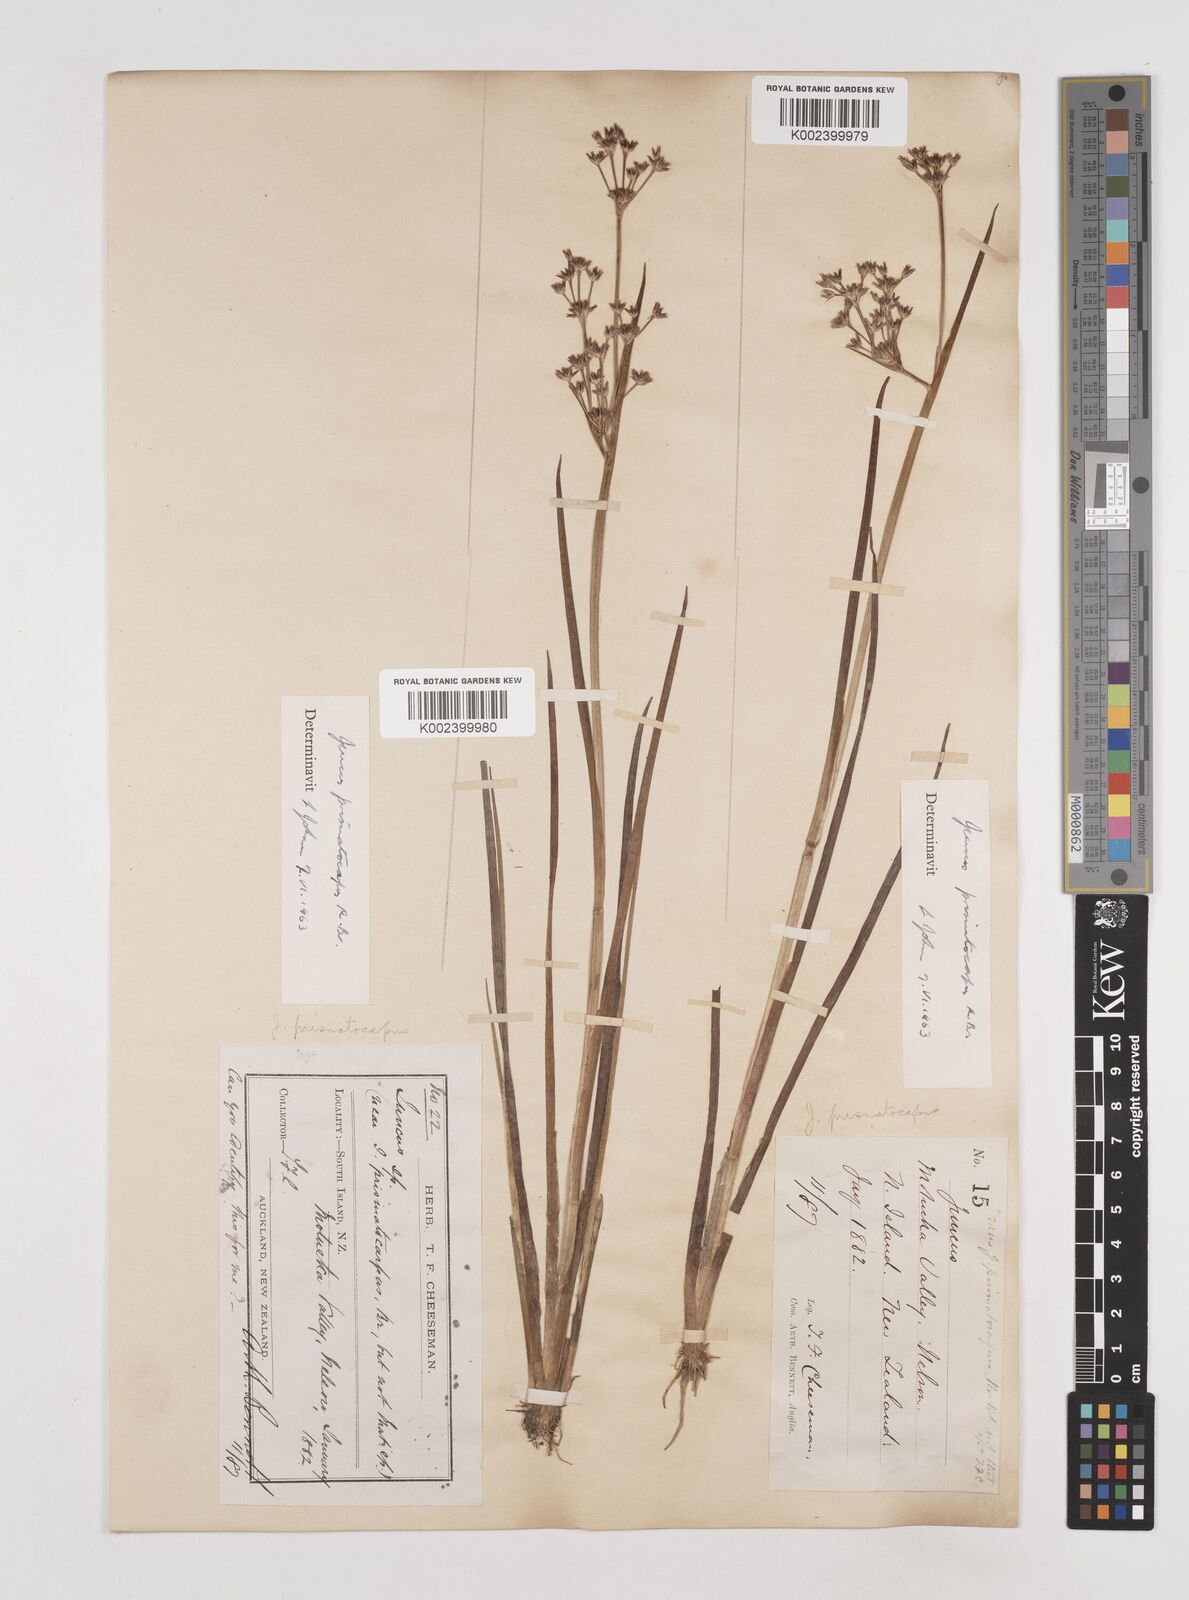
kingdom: Plantae
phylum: Tracheophyta
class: Liliopsida
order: Poales
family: Juncaceae
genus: Juncus
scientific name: Juncus prismatocarpus
